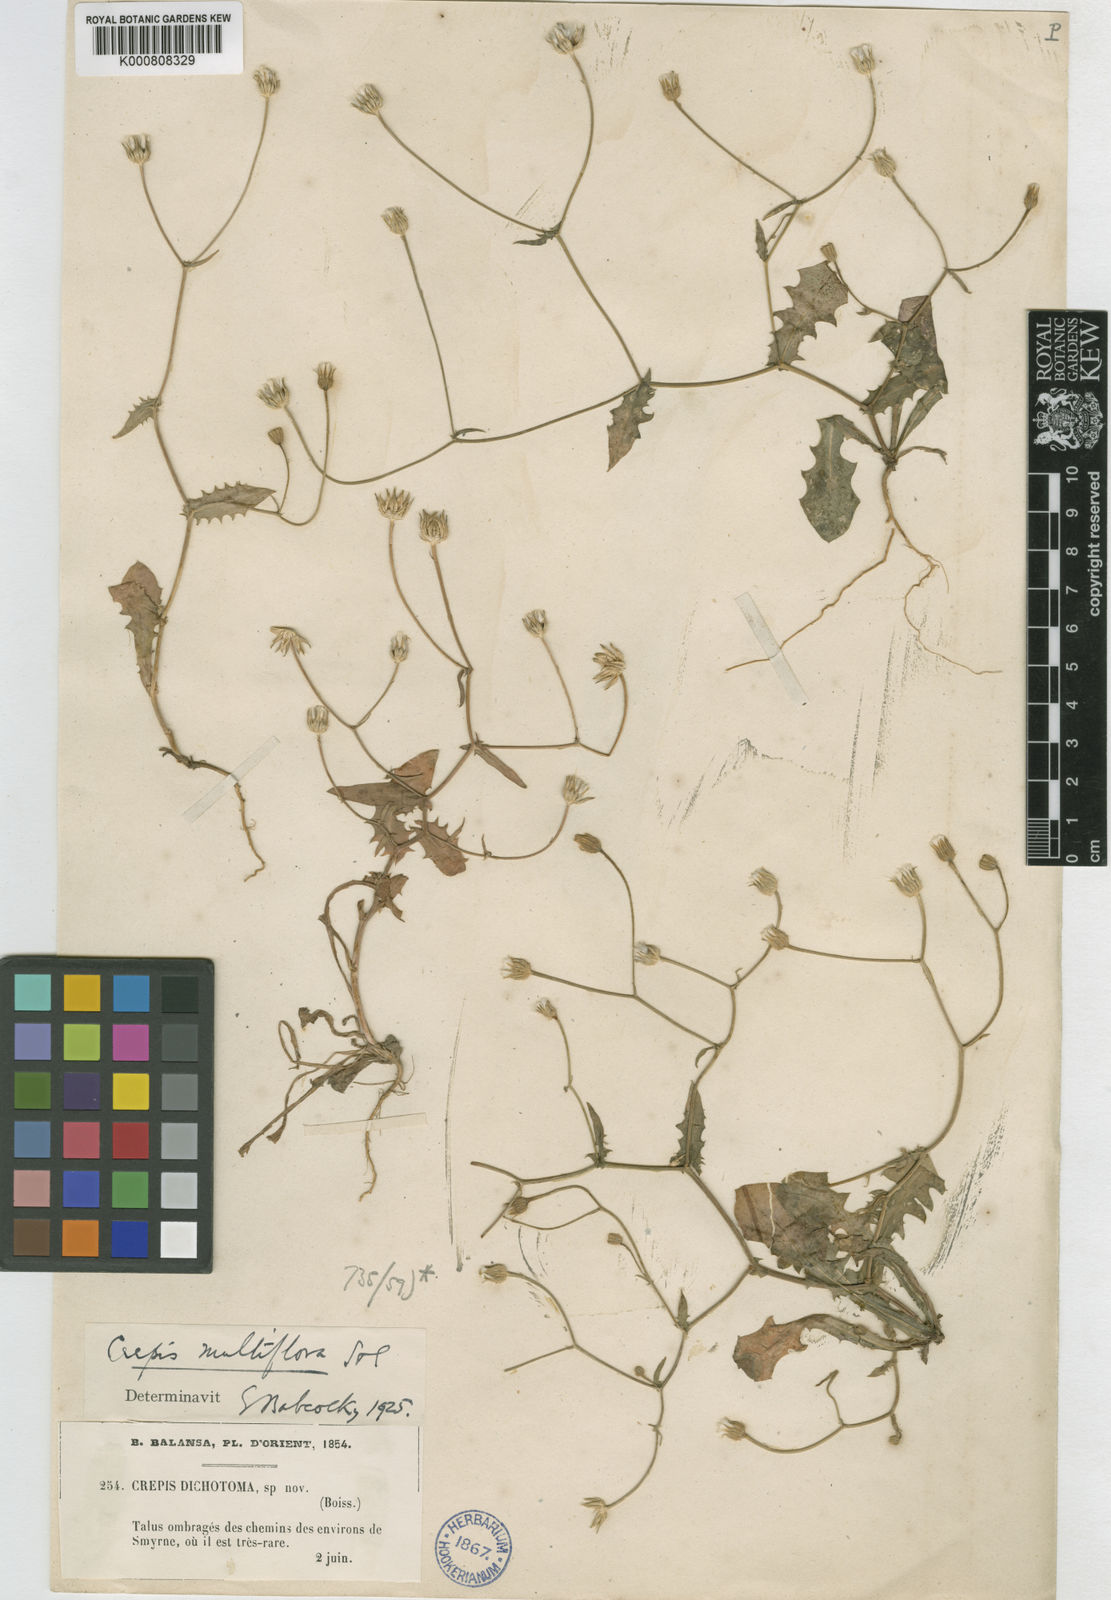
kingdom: Plantae
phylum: Tracheophyta
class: Magnoliopsida
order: Asterales
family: Asteraceae
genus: Crepis
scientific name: Crepis multiflora
